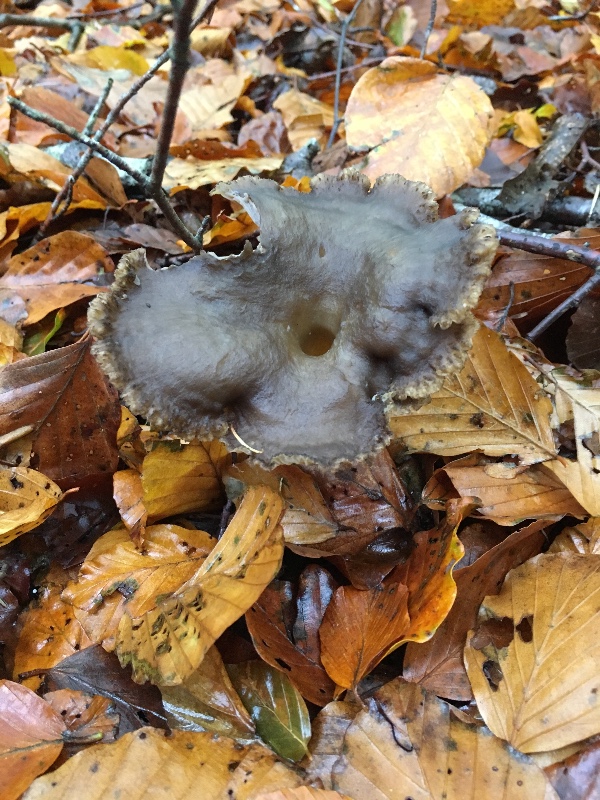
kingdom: Fungi
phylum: Basidiomycota
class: Agaricomycetes
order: Cantharellales
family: Hydnaceae
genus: Craterellus
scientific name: Craterellus tubaeformis
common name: tragt-kantarel
